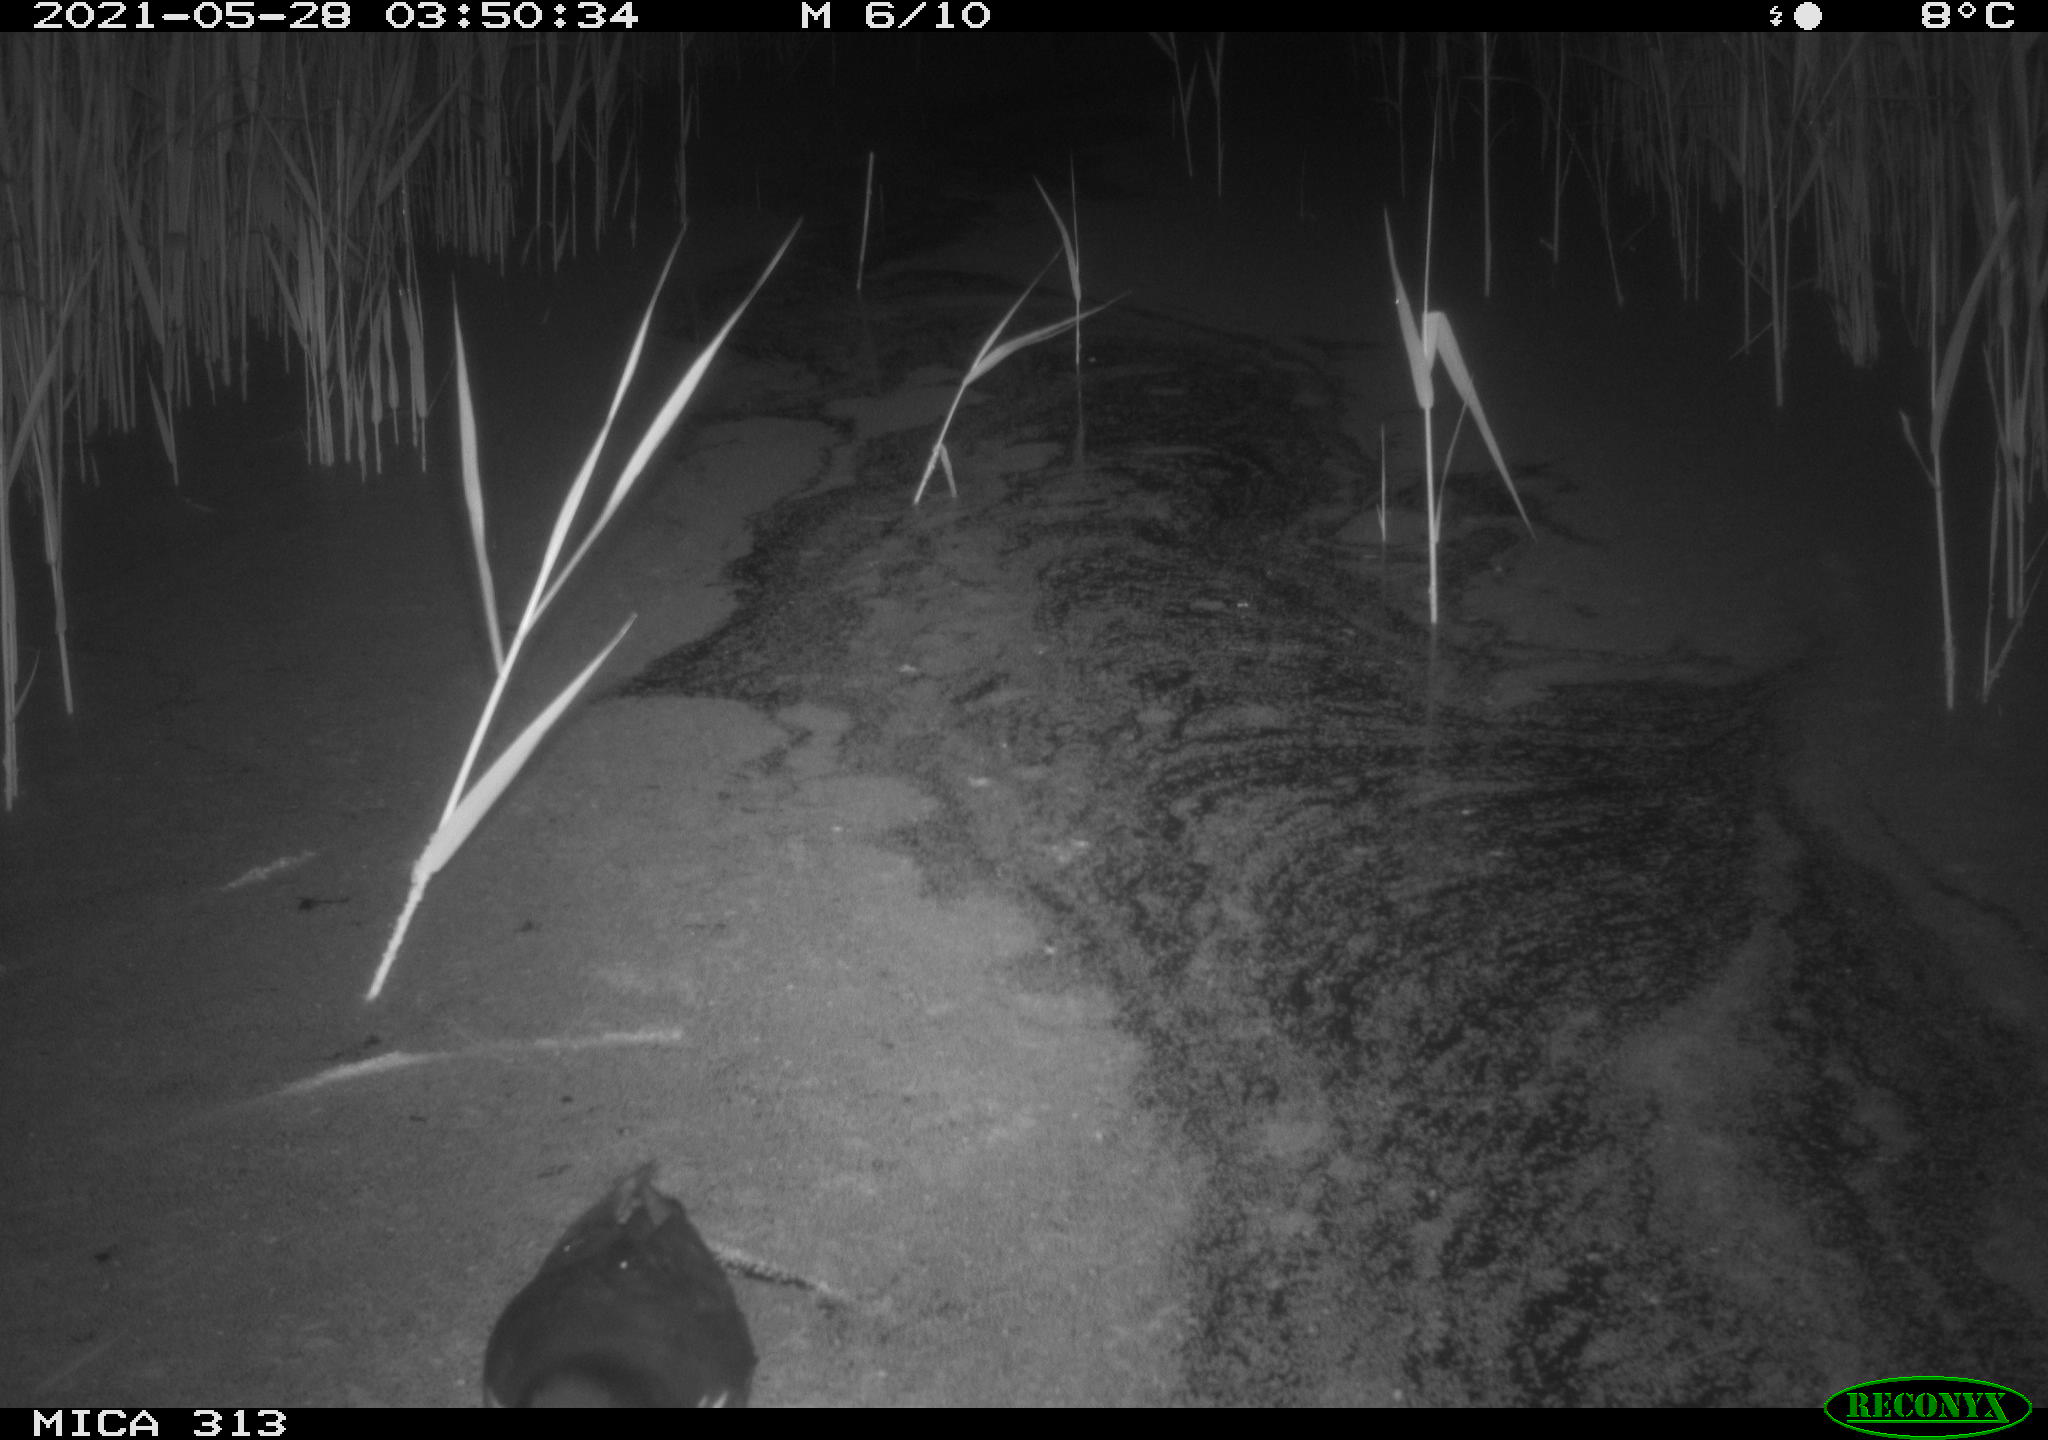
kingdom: Animalia
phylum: Chordata
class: Aves
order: Gruiformes
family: Rallidae
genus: Gallinula
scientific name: Gallinula chloropus
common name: Common moorhen
